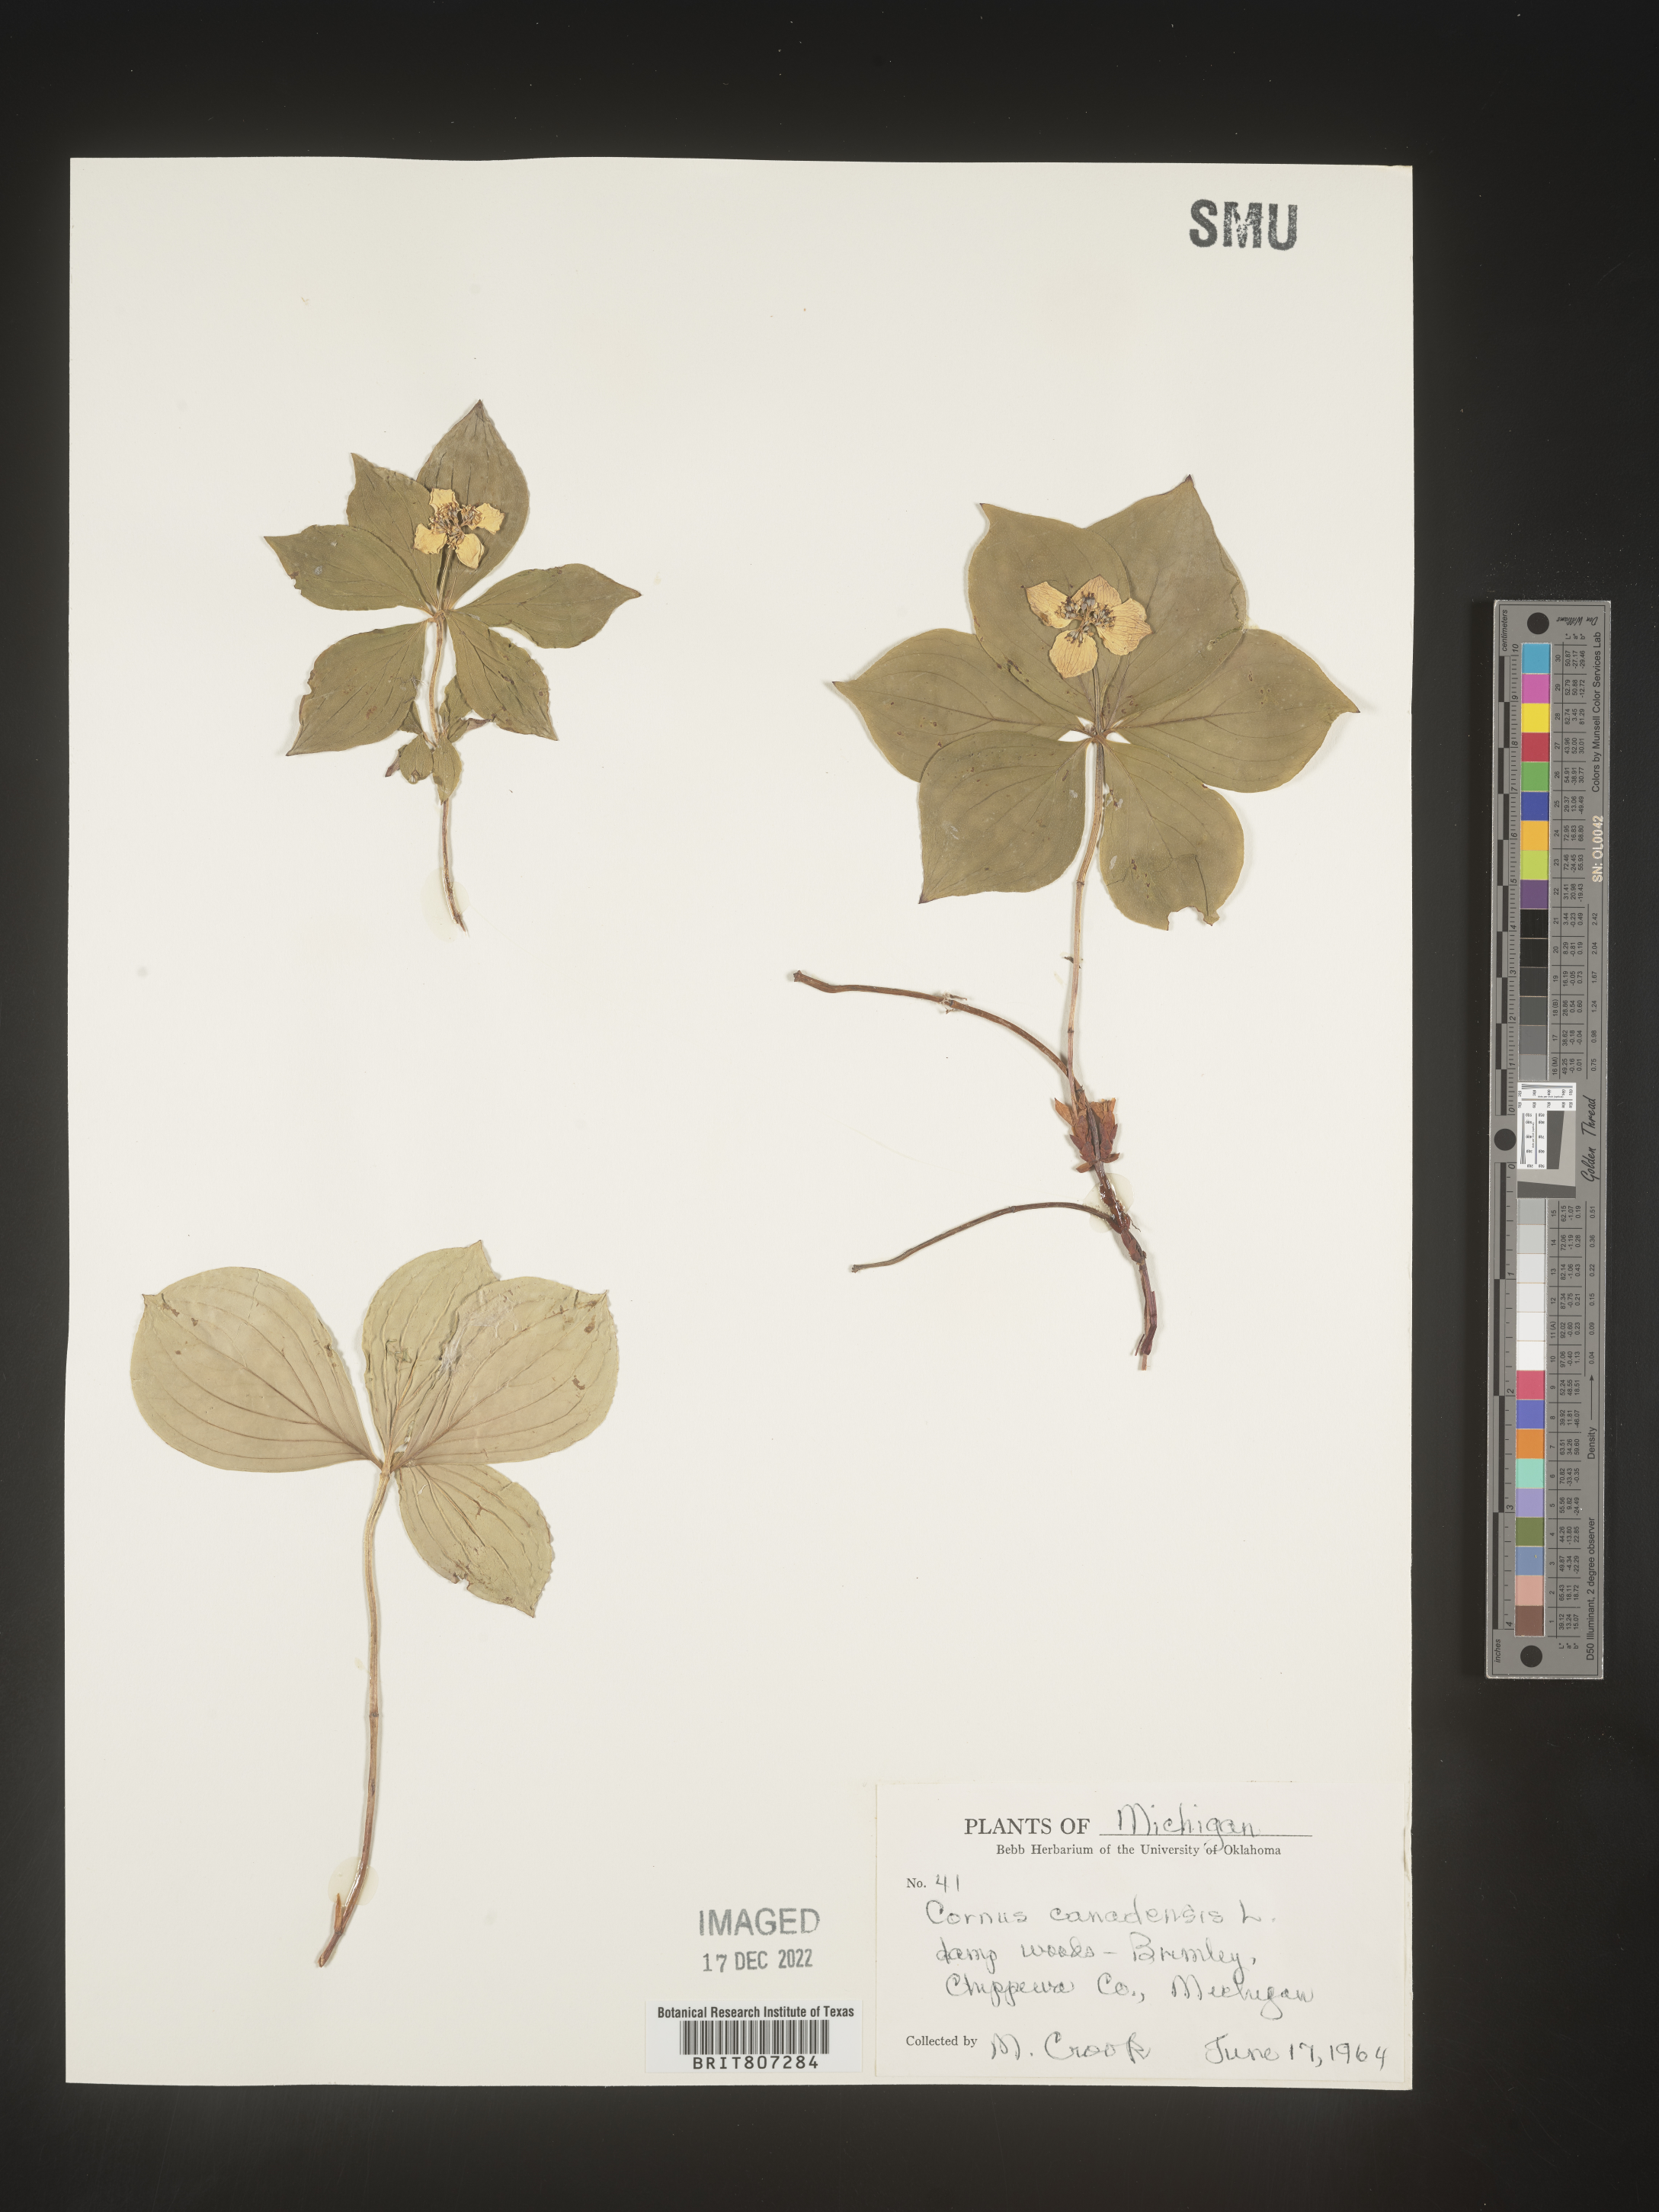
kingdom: Plantae
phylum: Tracheophyta
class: Magnoliopsida
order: Cornales
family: Cornaceae
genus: Cornus
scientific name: Cornus canadensis
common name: Creeping dogwood
